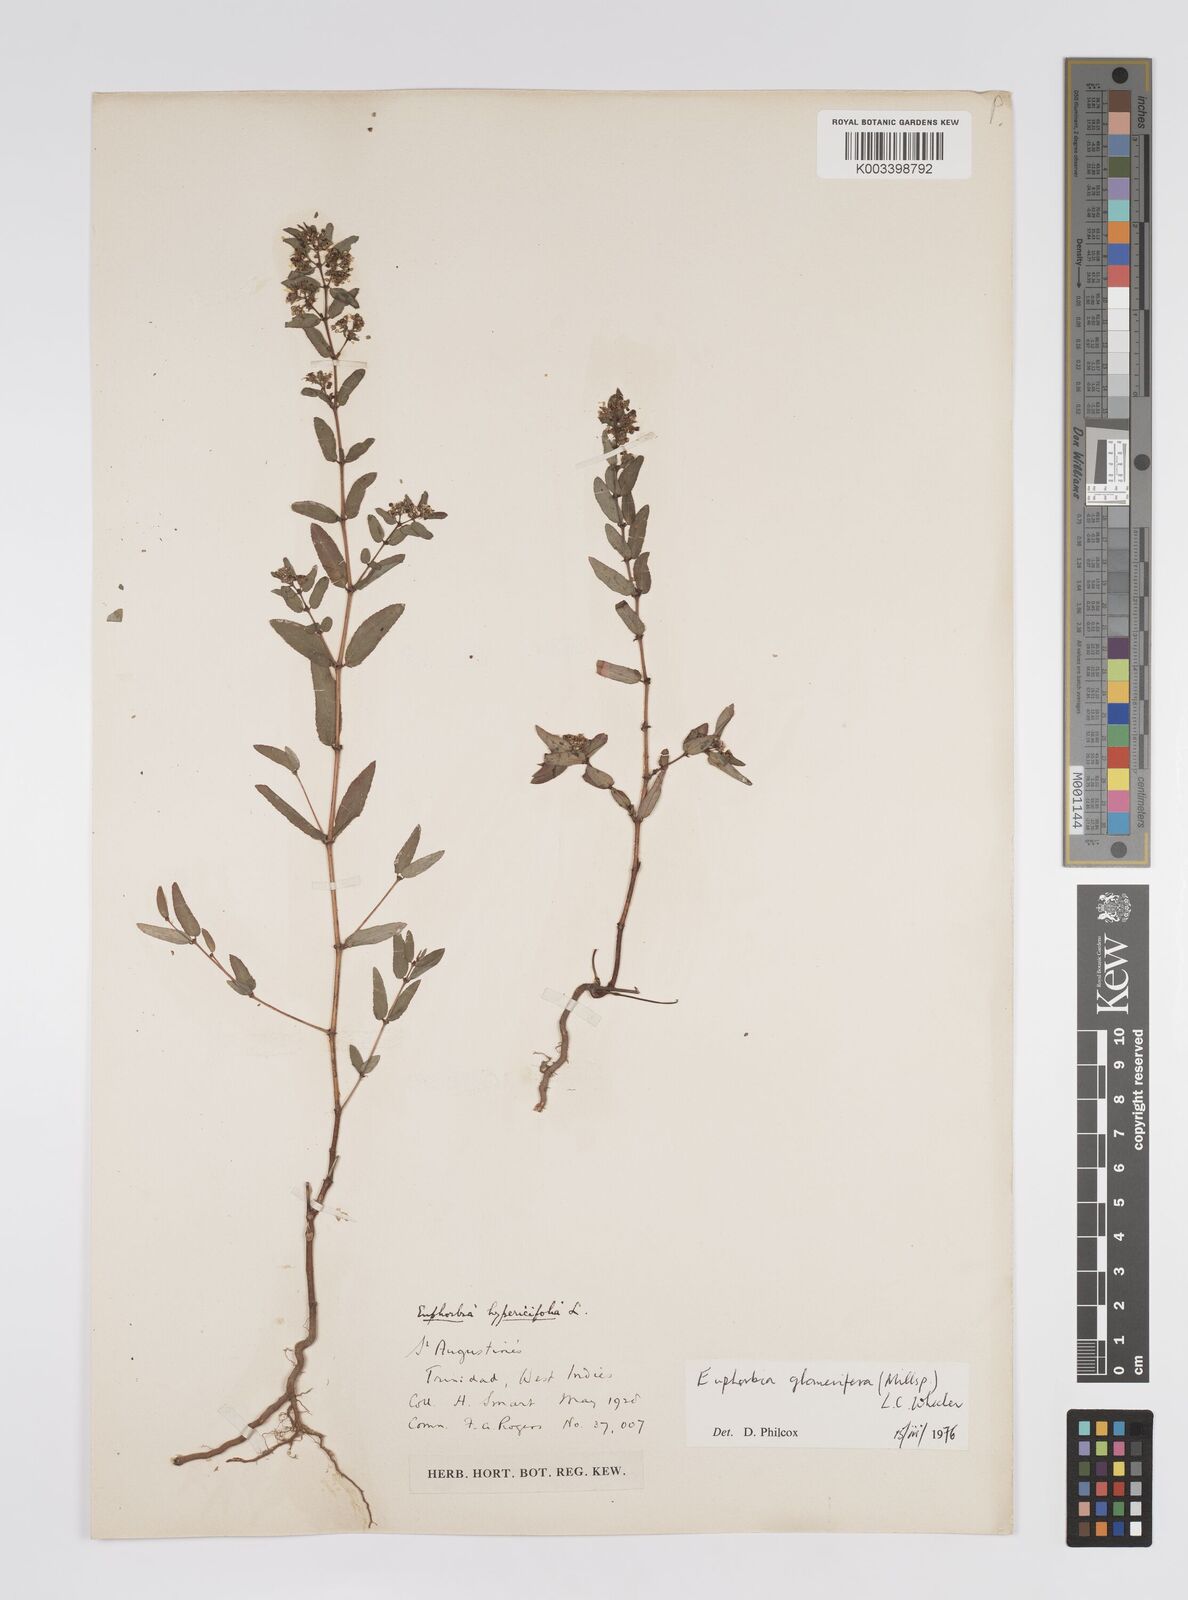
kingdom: Plantae
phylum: Tracheophyta
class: Magnoliopsida
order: Malpighiales
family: Euphorbiaceae
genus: Euphorbia
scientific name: Euphorbia hypericifolia
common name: Graceful sandmat
